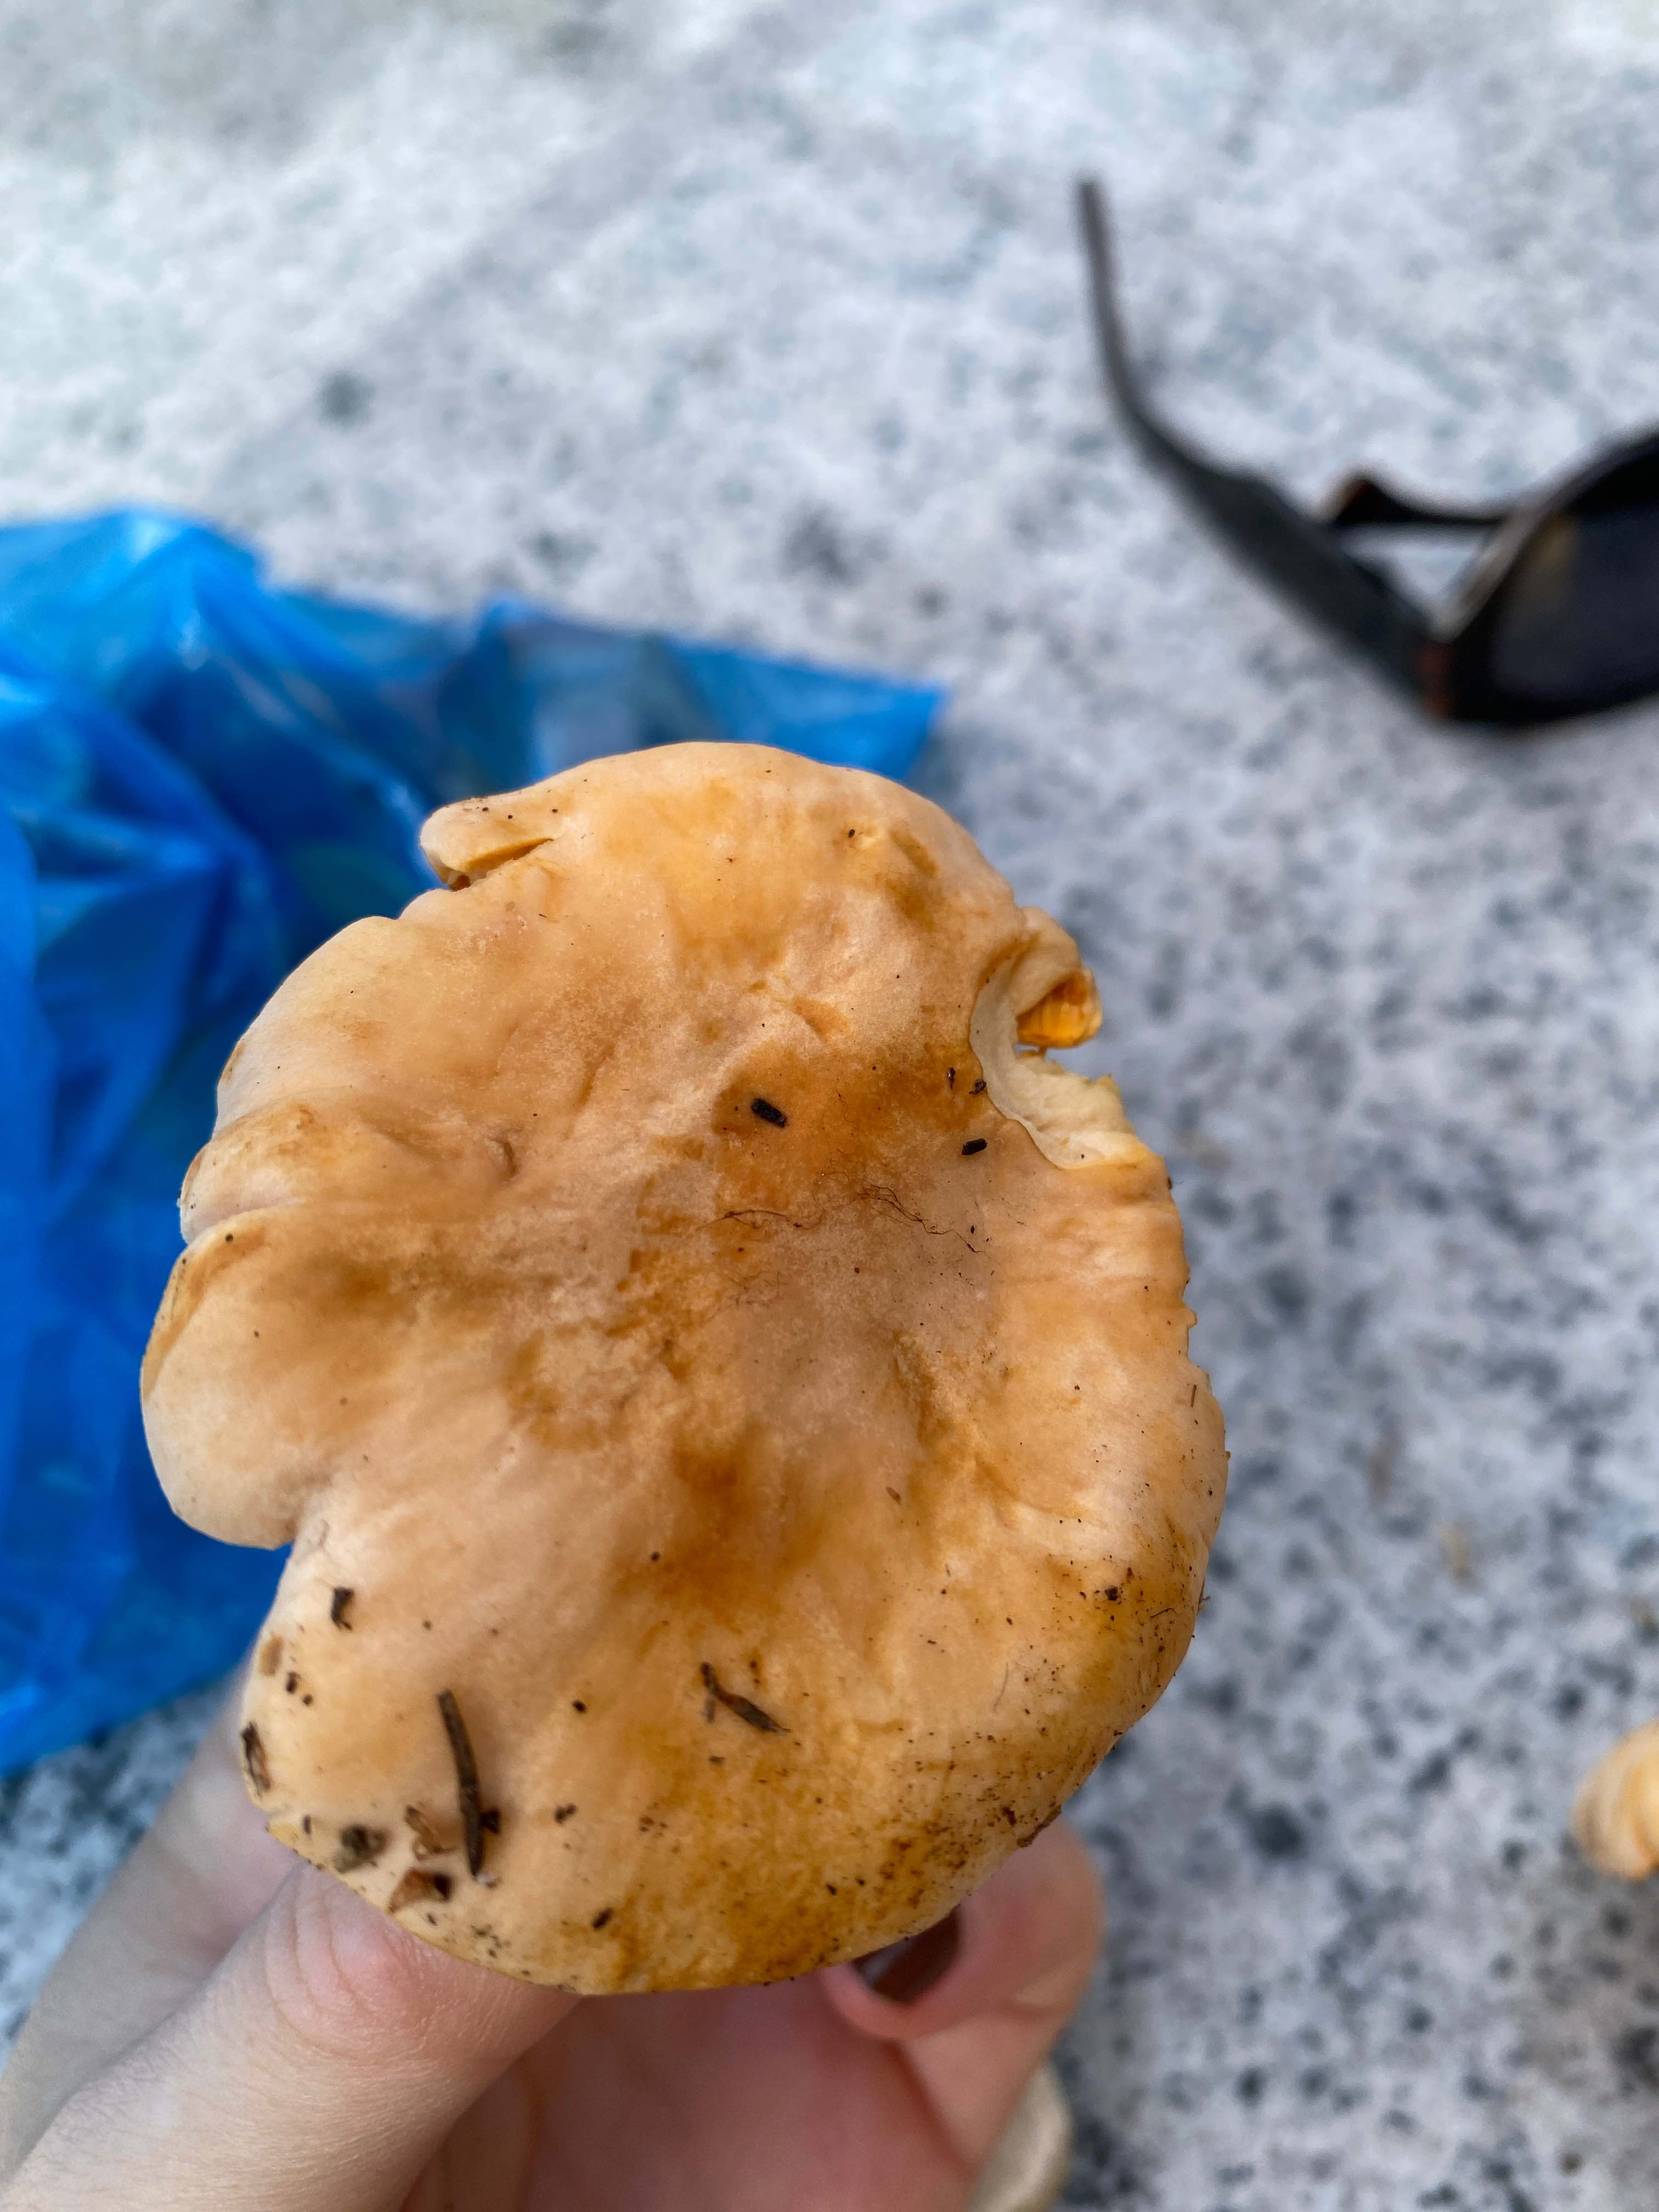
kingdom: Fungi
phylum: Basidiomycota
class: Agaricomycetes
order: Cantharellales
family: Hydnaceae
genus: Cantharellus
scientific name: Cantharellus
